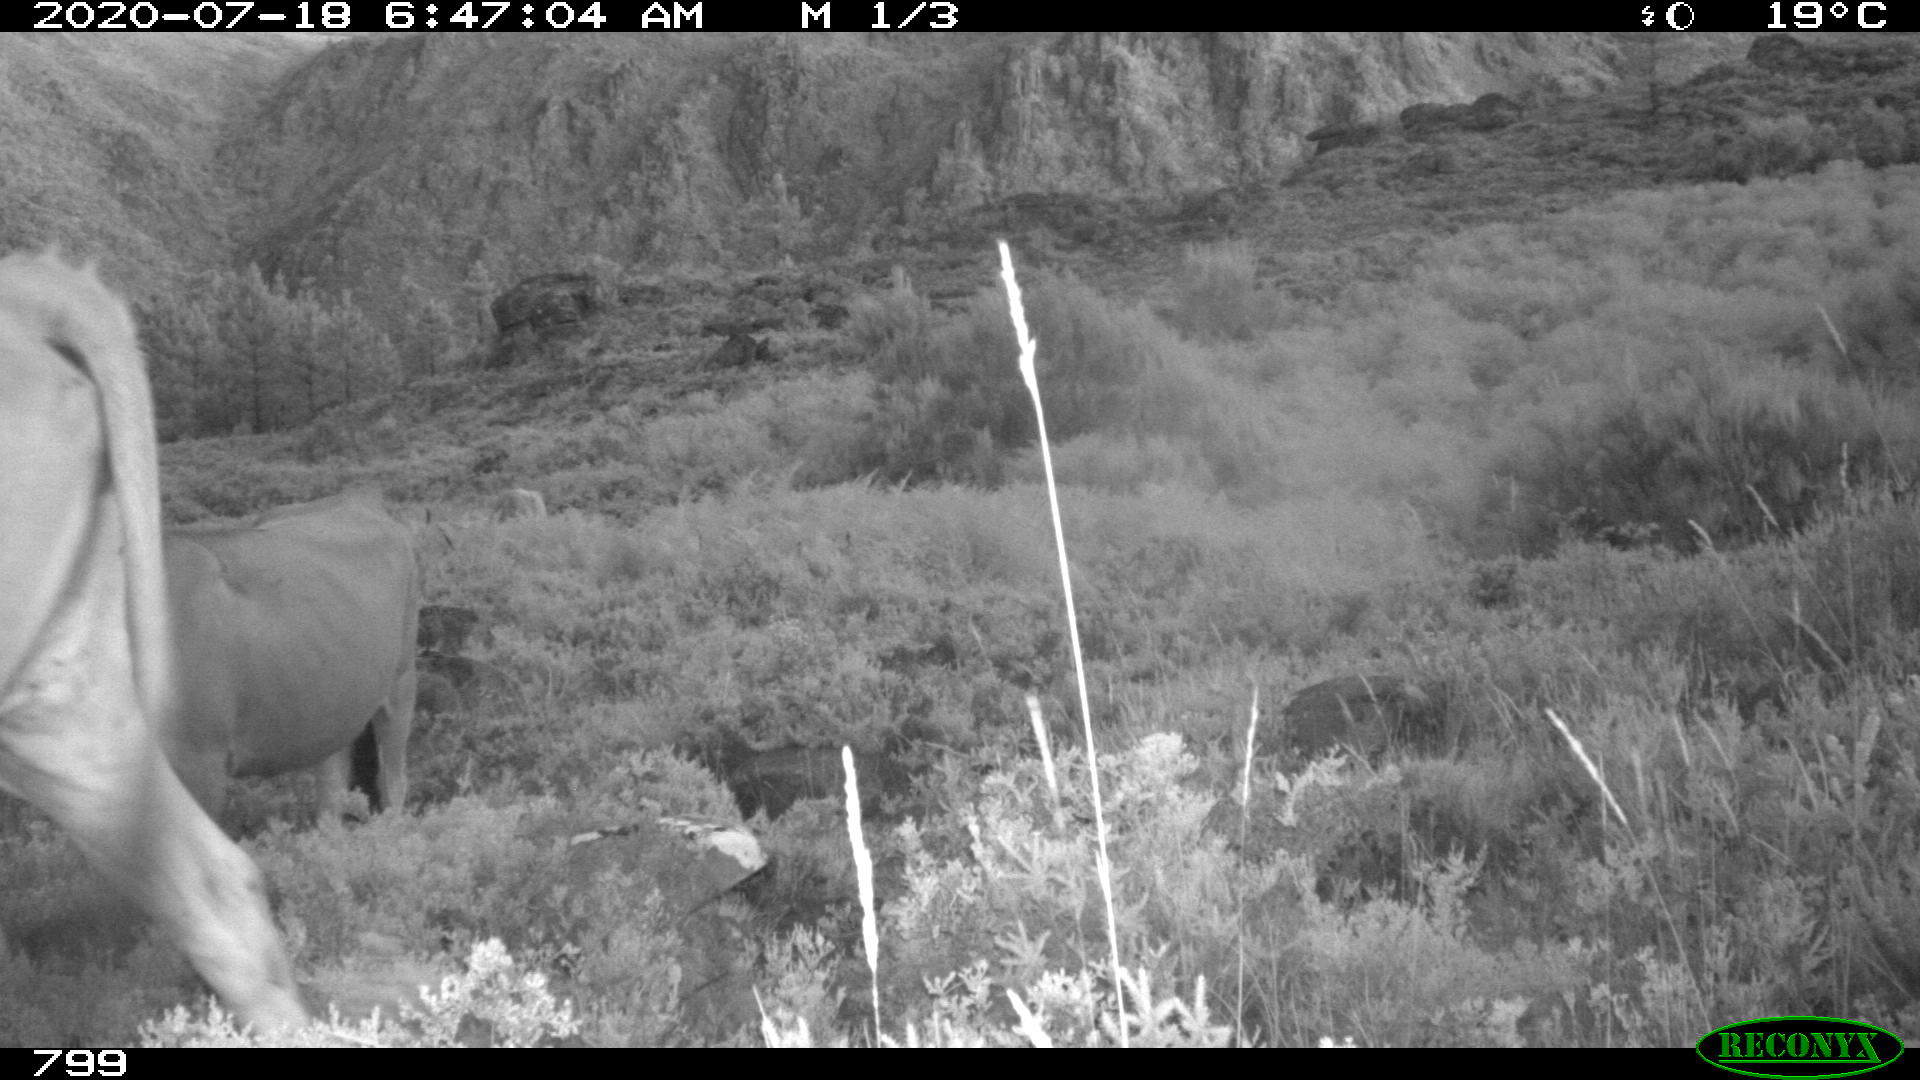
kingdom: Animalia
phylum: Chordata
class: Mammalia
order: Artiodactyla
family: Bovidae
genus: Bos
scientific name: Bos taurus
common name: Domesticated cattle
